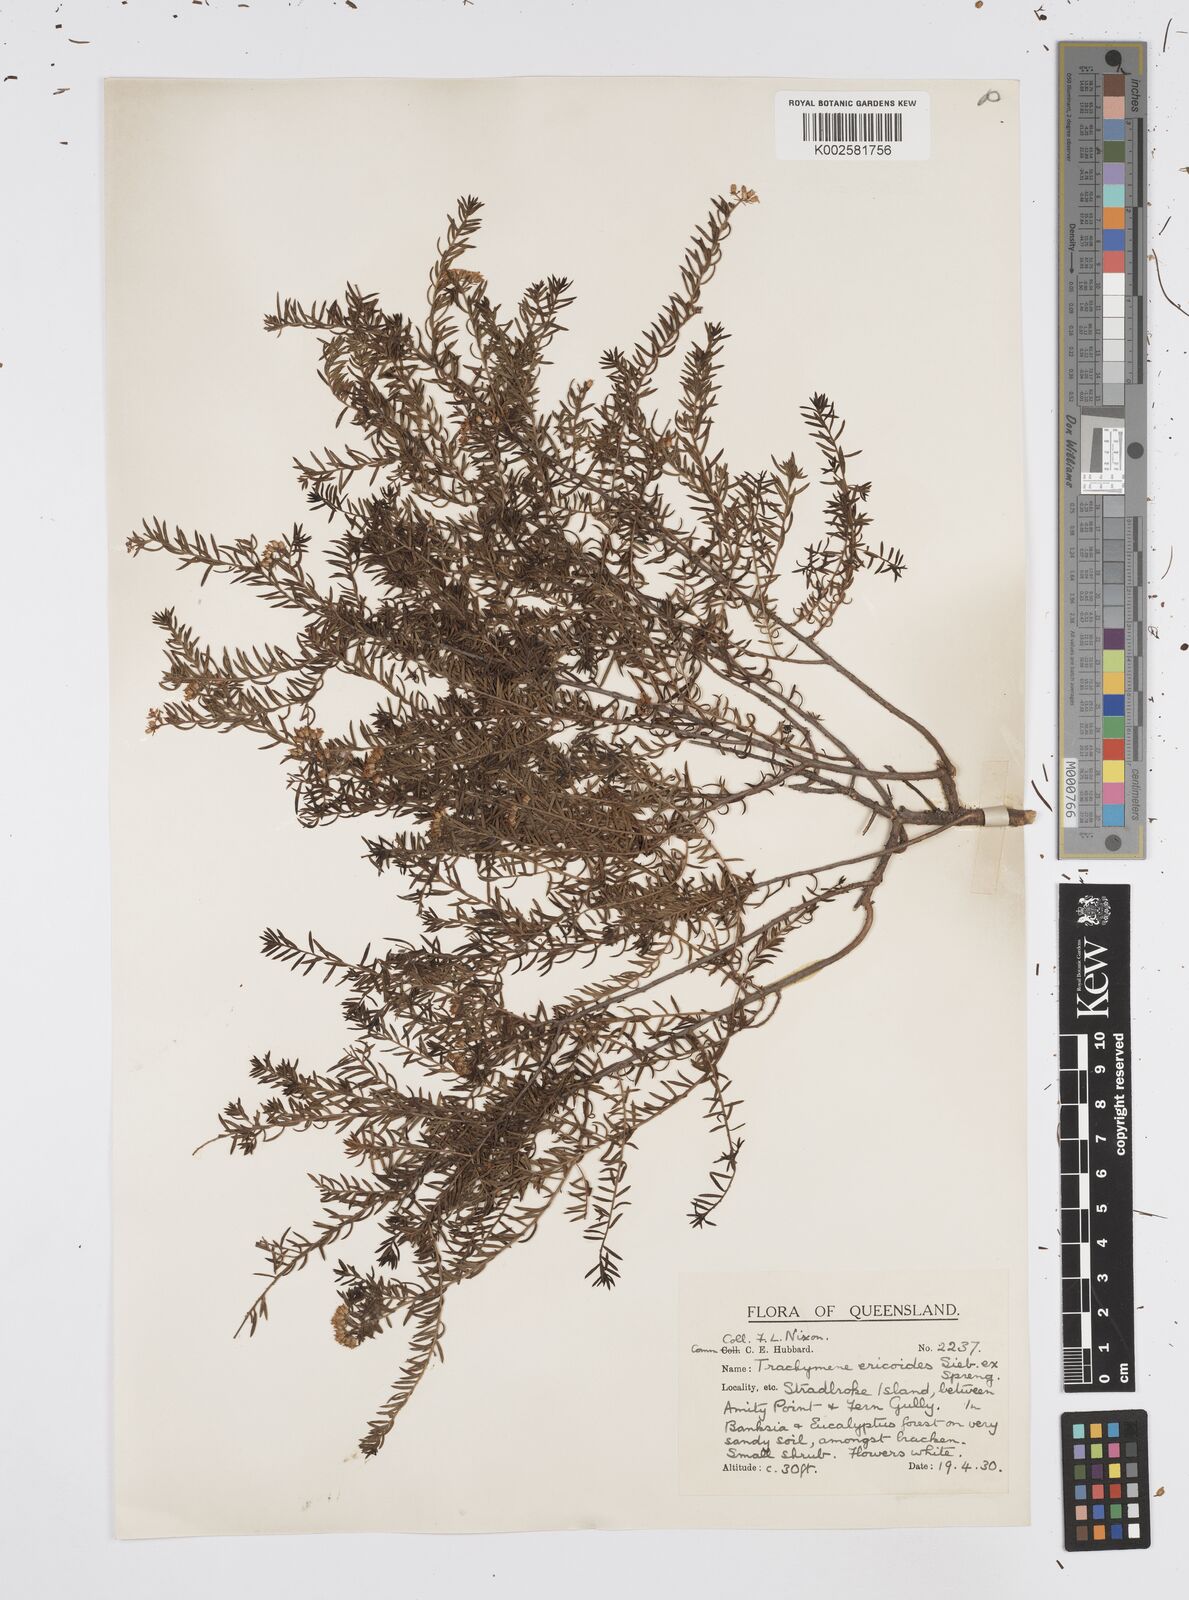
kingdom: Plantae
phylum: Tracheophyta
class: Magnoliopsida
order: Apiales
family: Apiaceae
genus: Platysace
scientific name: Platysace ericoides
